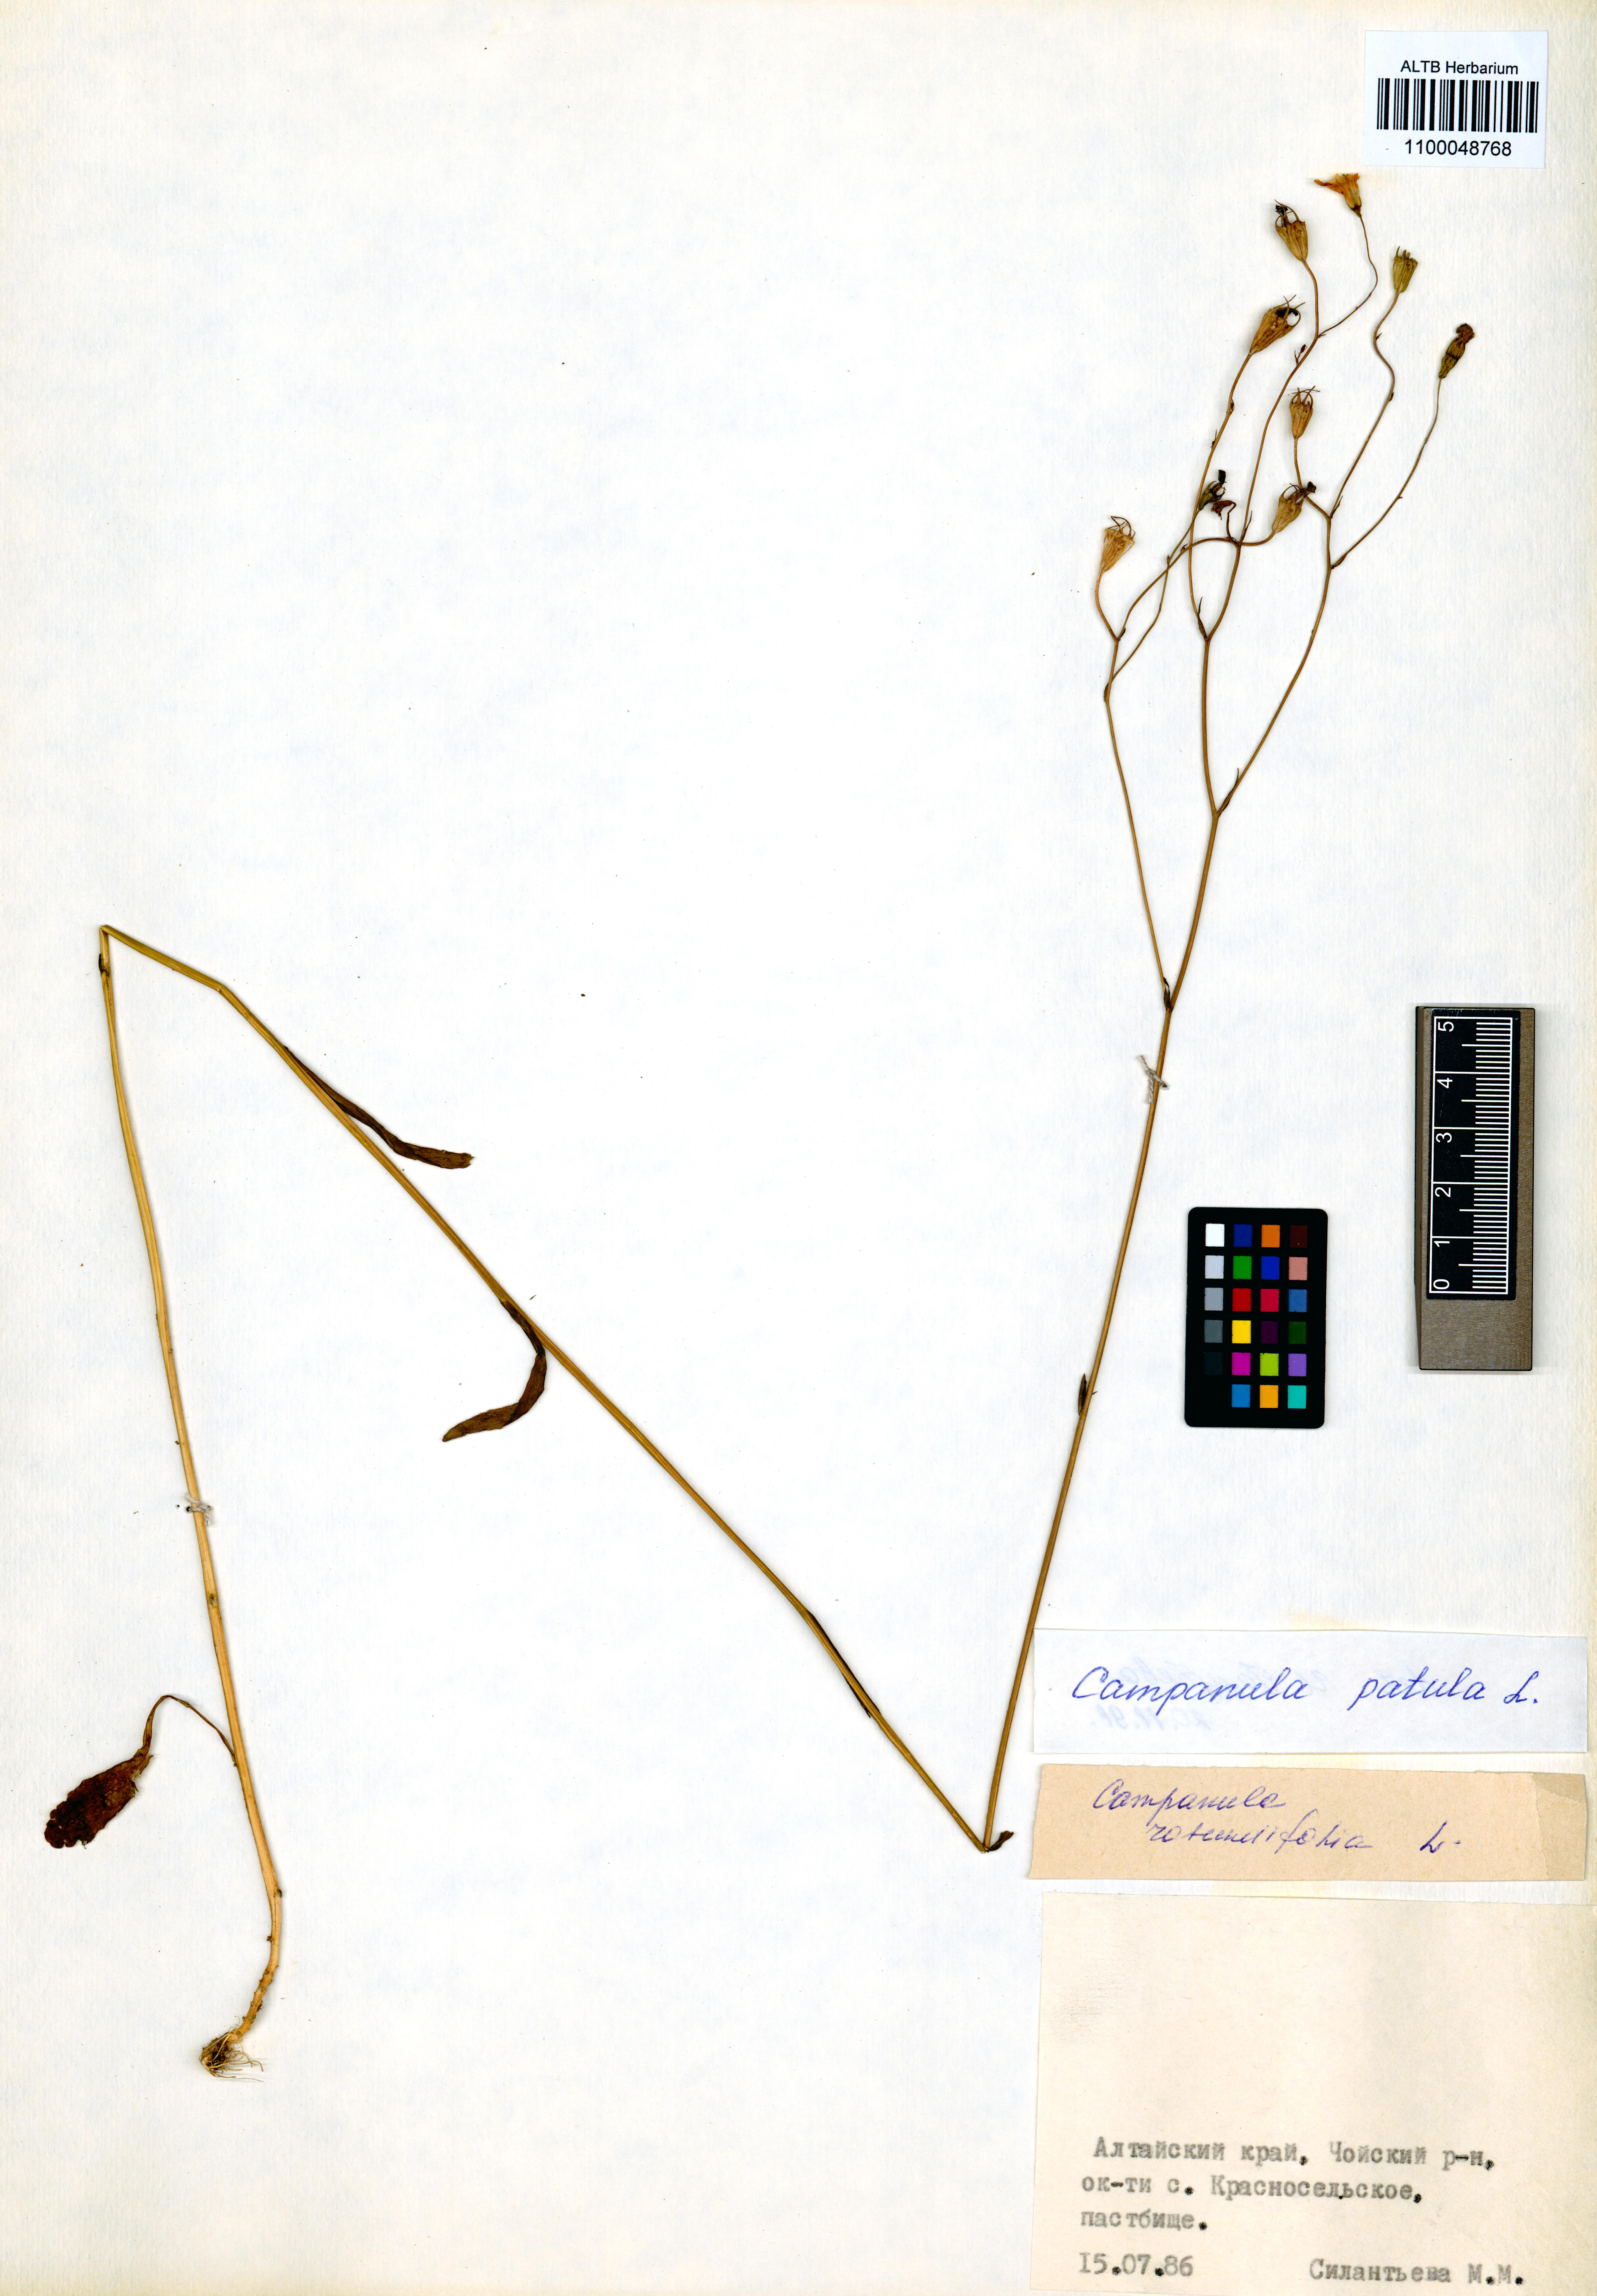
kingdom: Plantae
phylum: Tracheophyta
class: Magnoliopsida
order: Asterales
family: Campanulaceae
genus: Campanula
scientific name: Campanula patula
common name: Spreading bellflower
